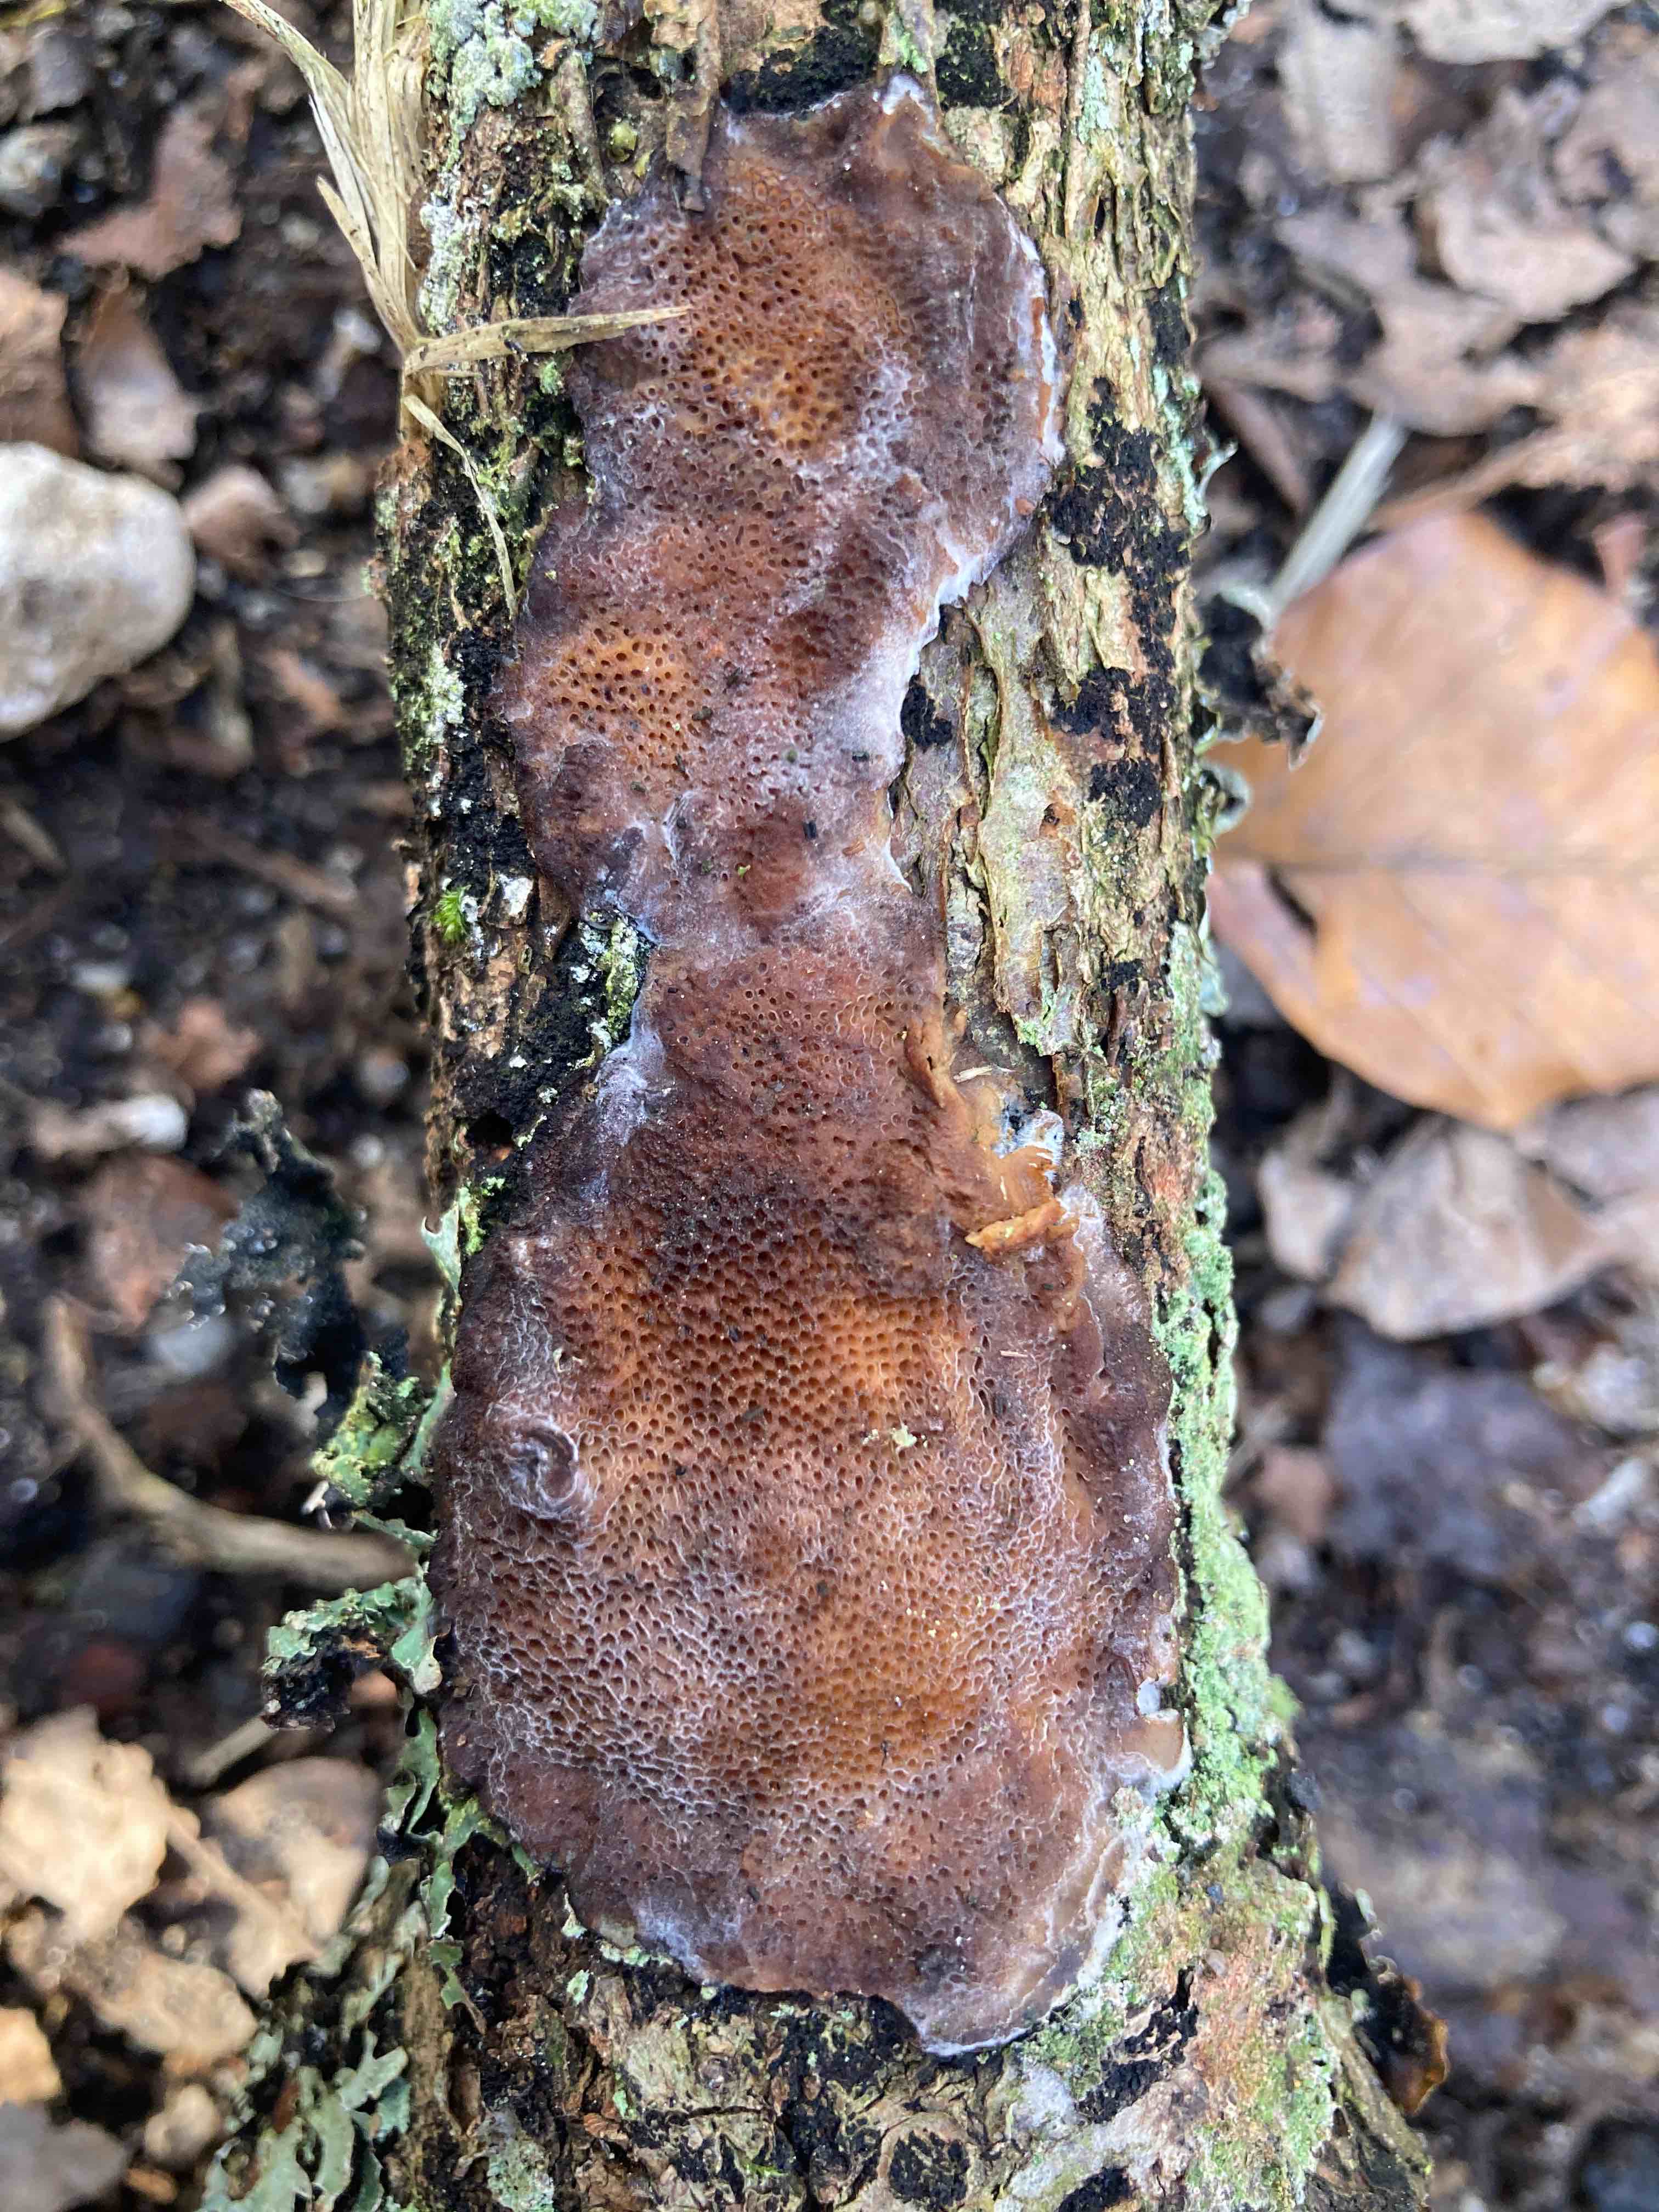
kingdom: Fungi
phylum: Basidiomycota
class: Agaricomycetes
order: Polyporales
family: Polyporaceae
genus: Szczepkamyces
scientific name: Szczepkamyces campestris
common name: hasselporesvamp
